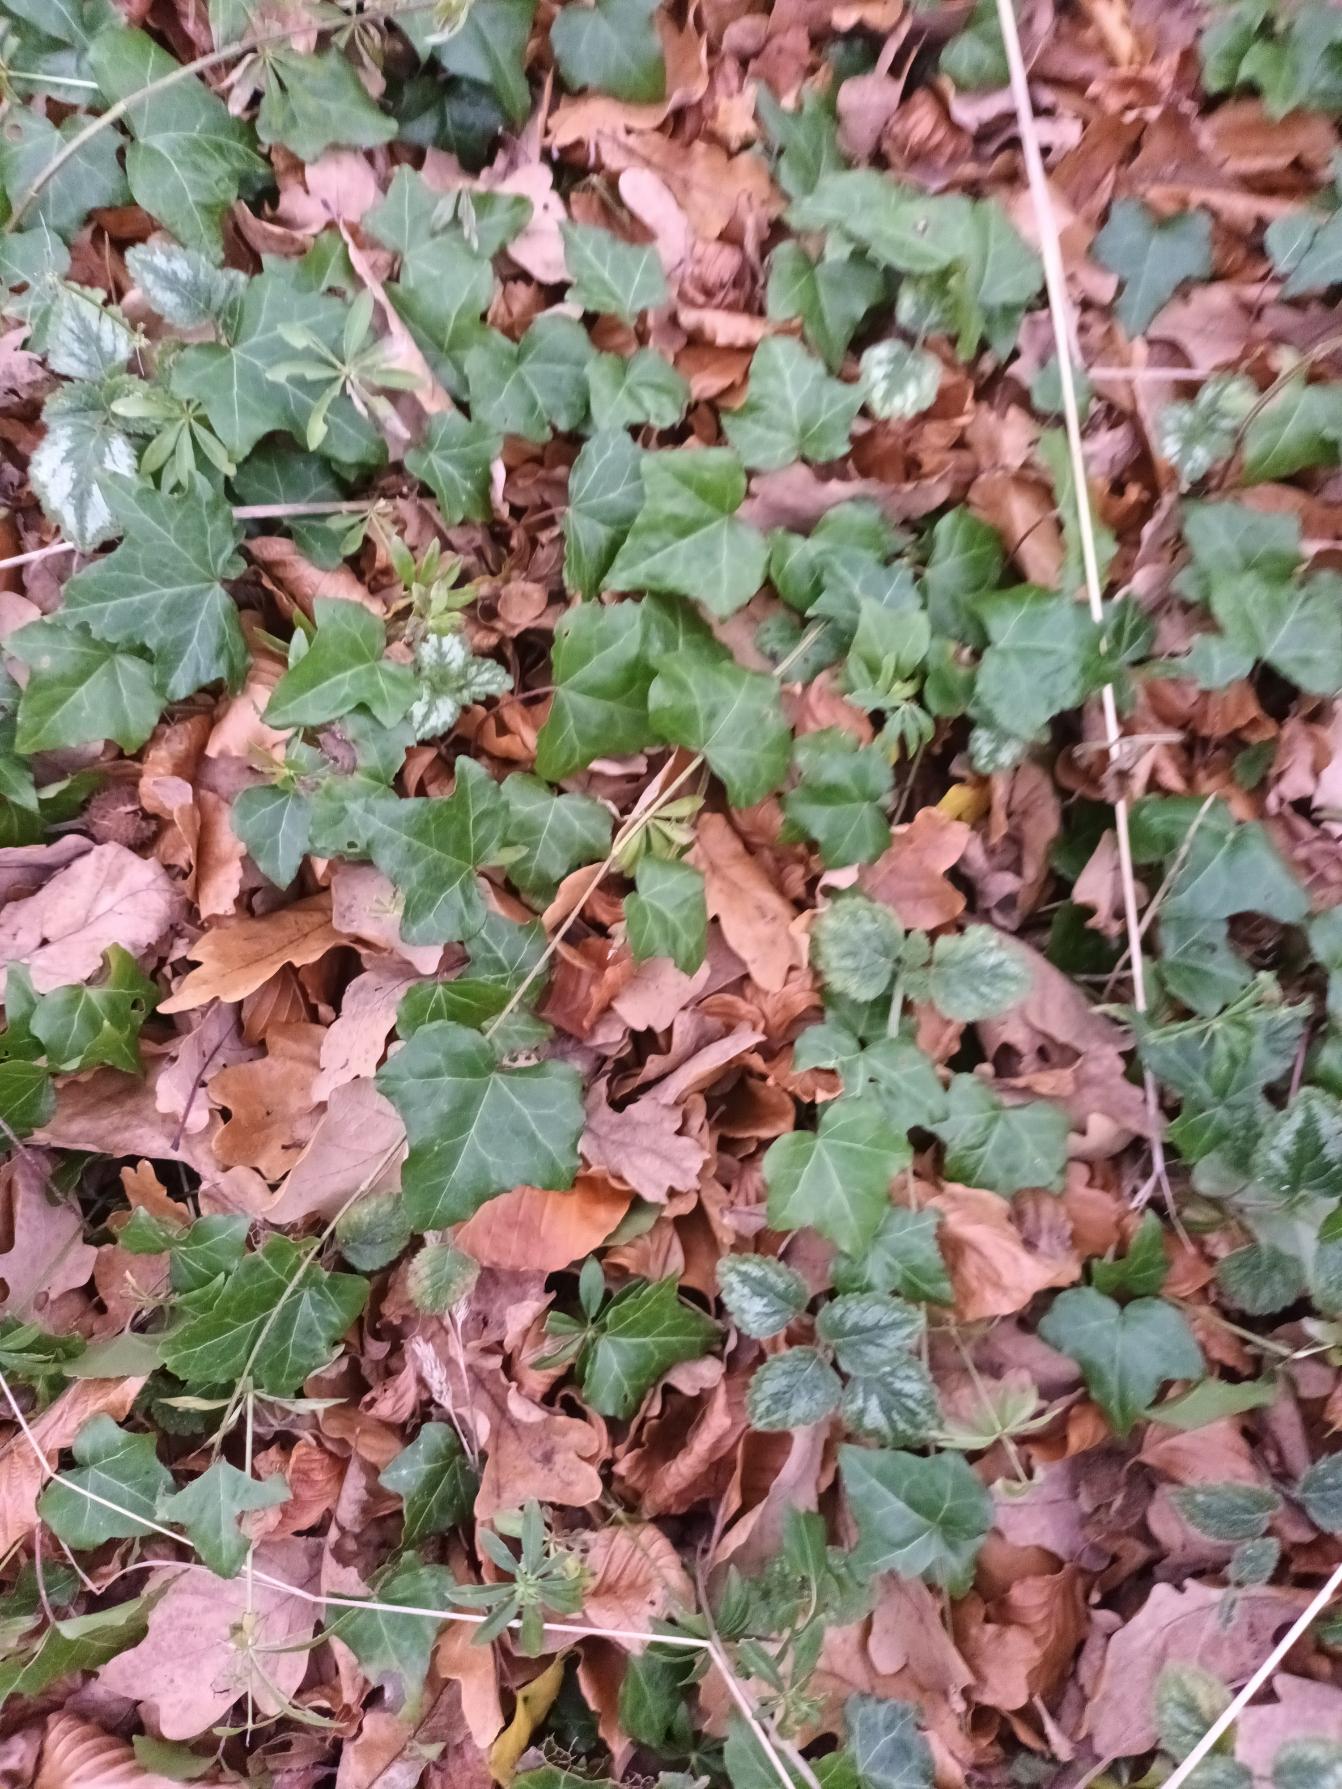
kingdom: Plantae
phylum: Tracheophyta
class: Magnoliopsida
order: Apiales
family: Araliaceae
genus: Hedera
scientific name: Hedera helix
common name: Vedbend
